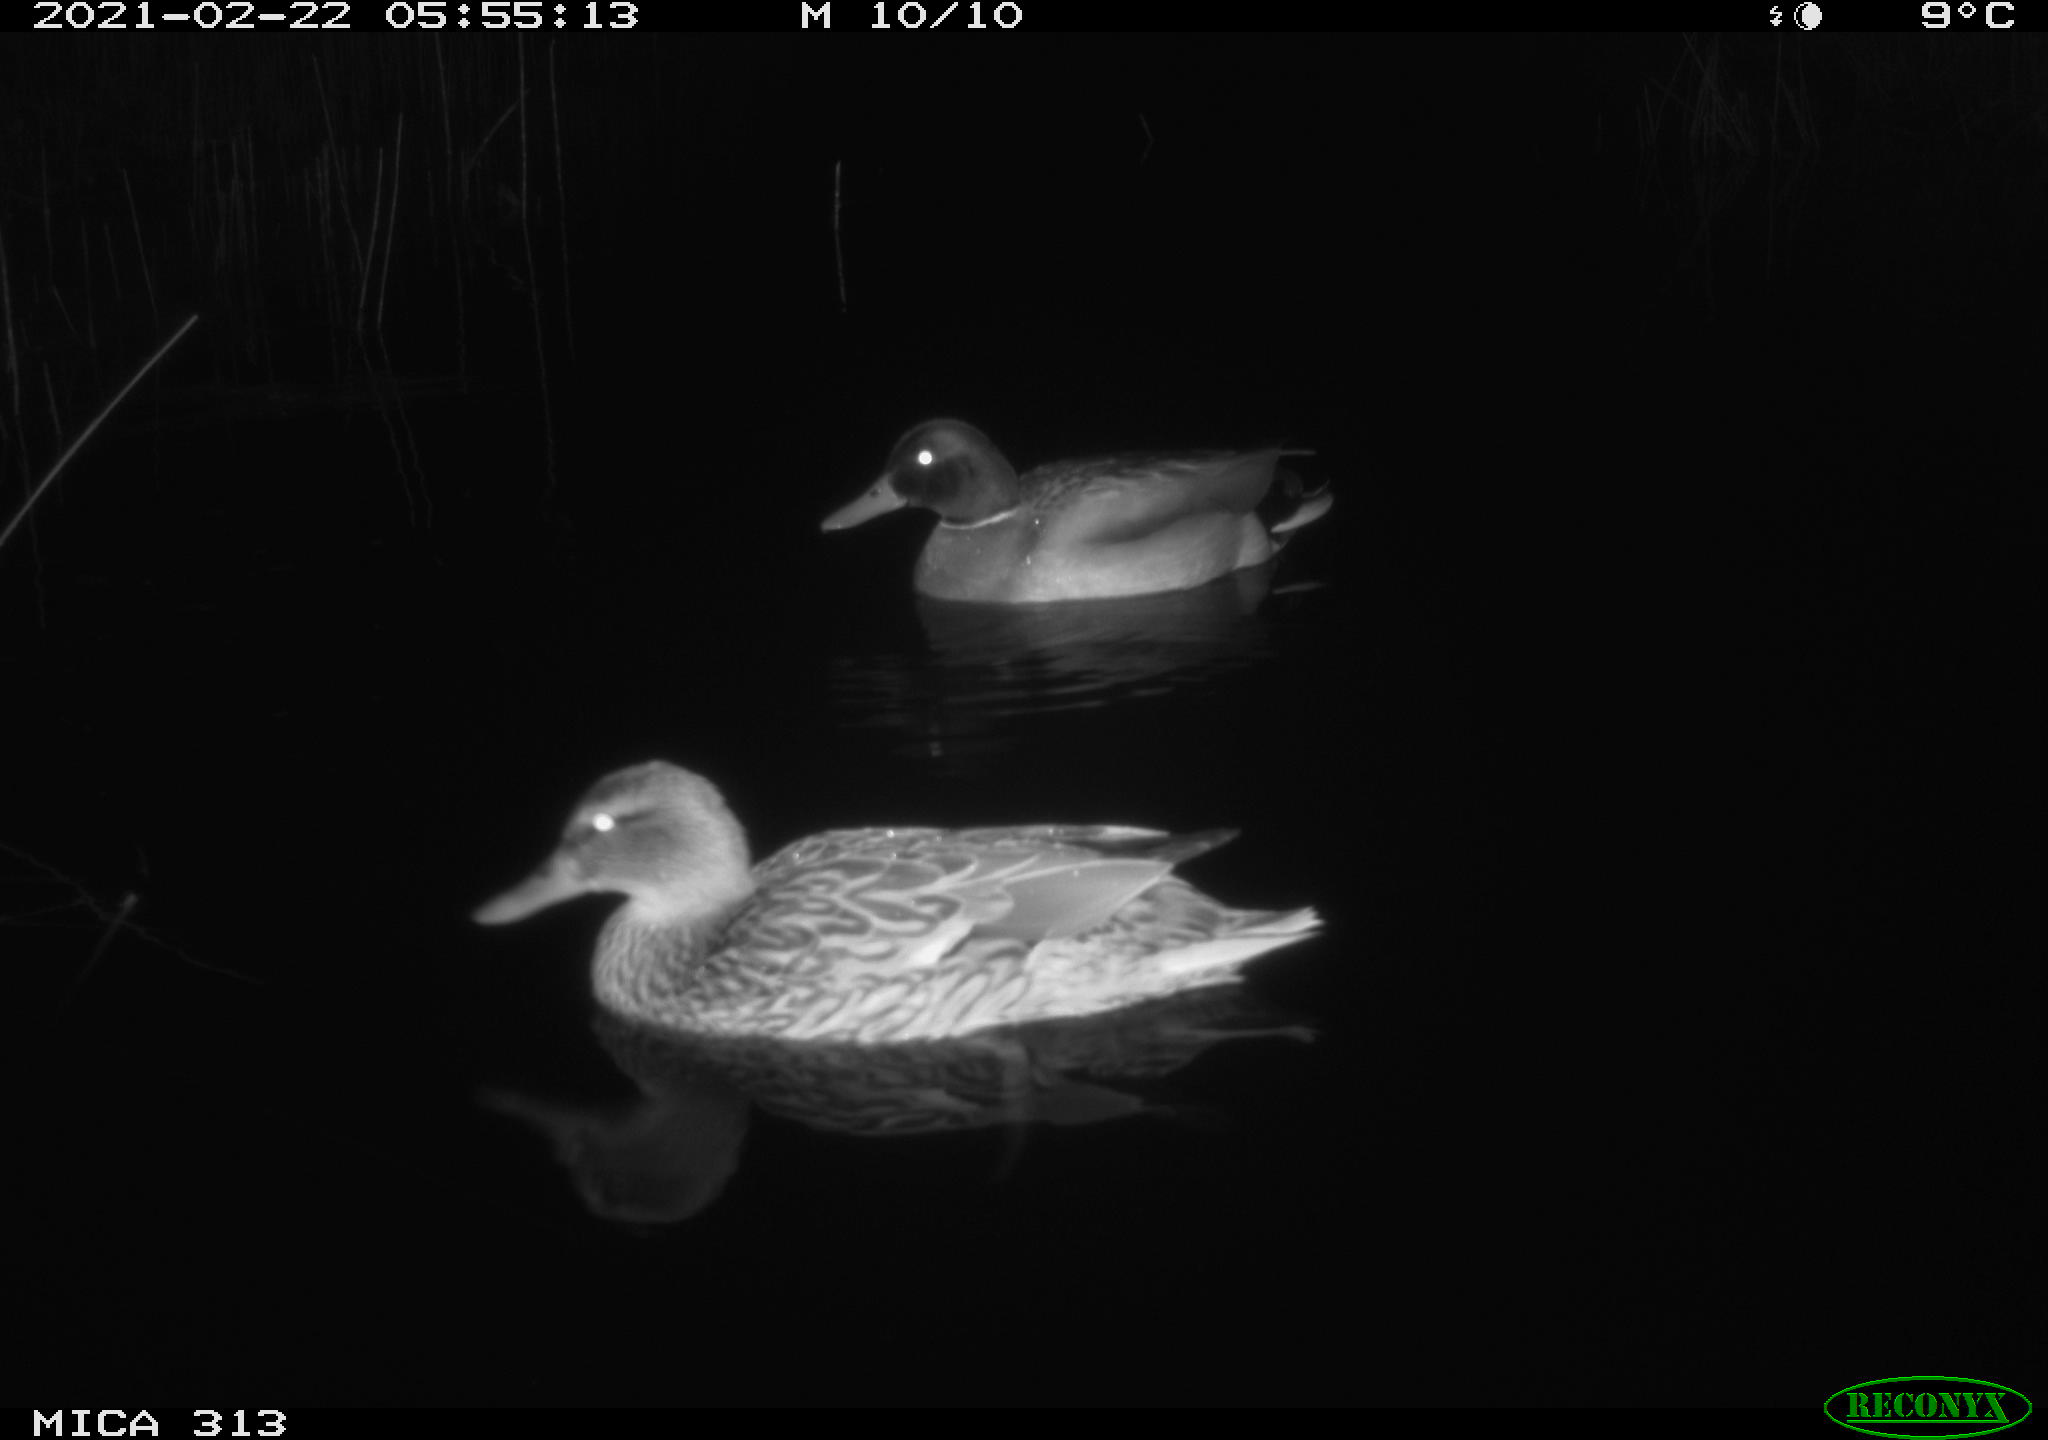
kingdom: Animalia
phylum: Chordata
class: Aves
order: Anseriformes
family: Anatidae
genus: Anas
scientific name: Anas
